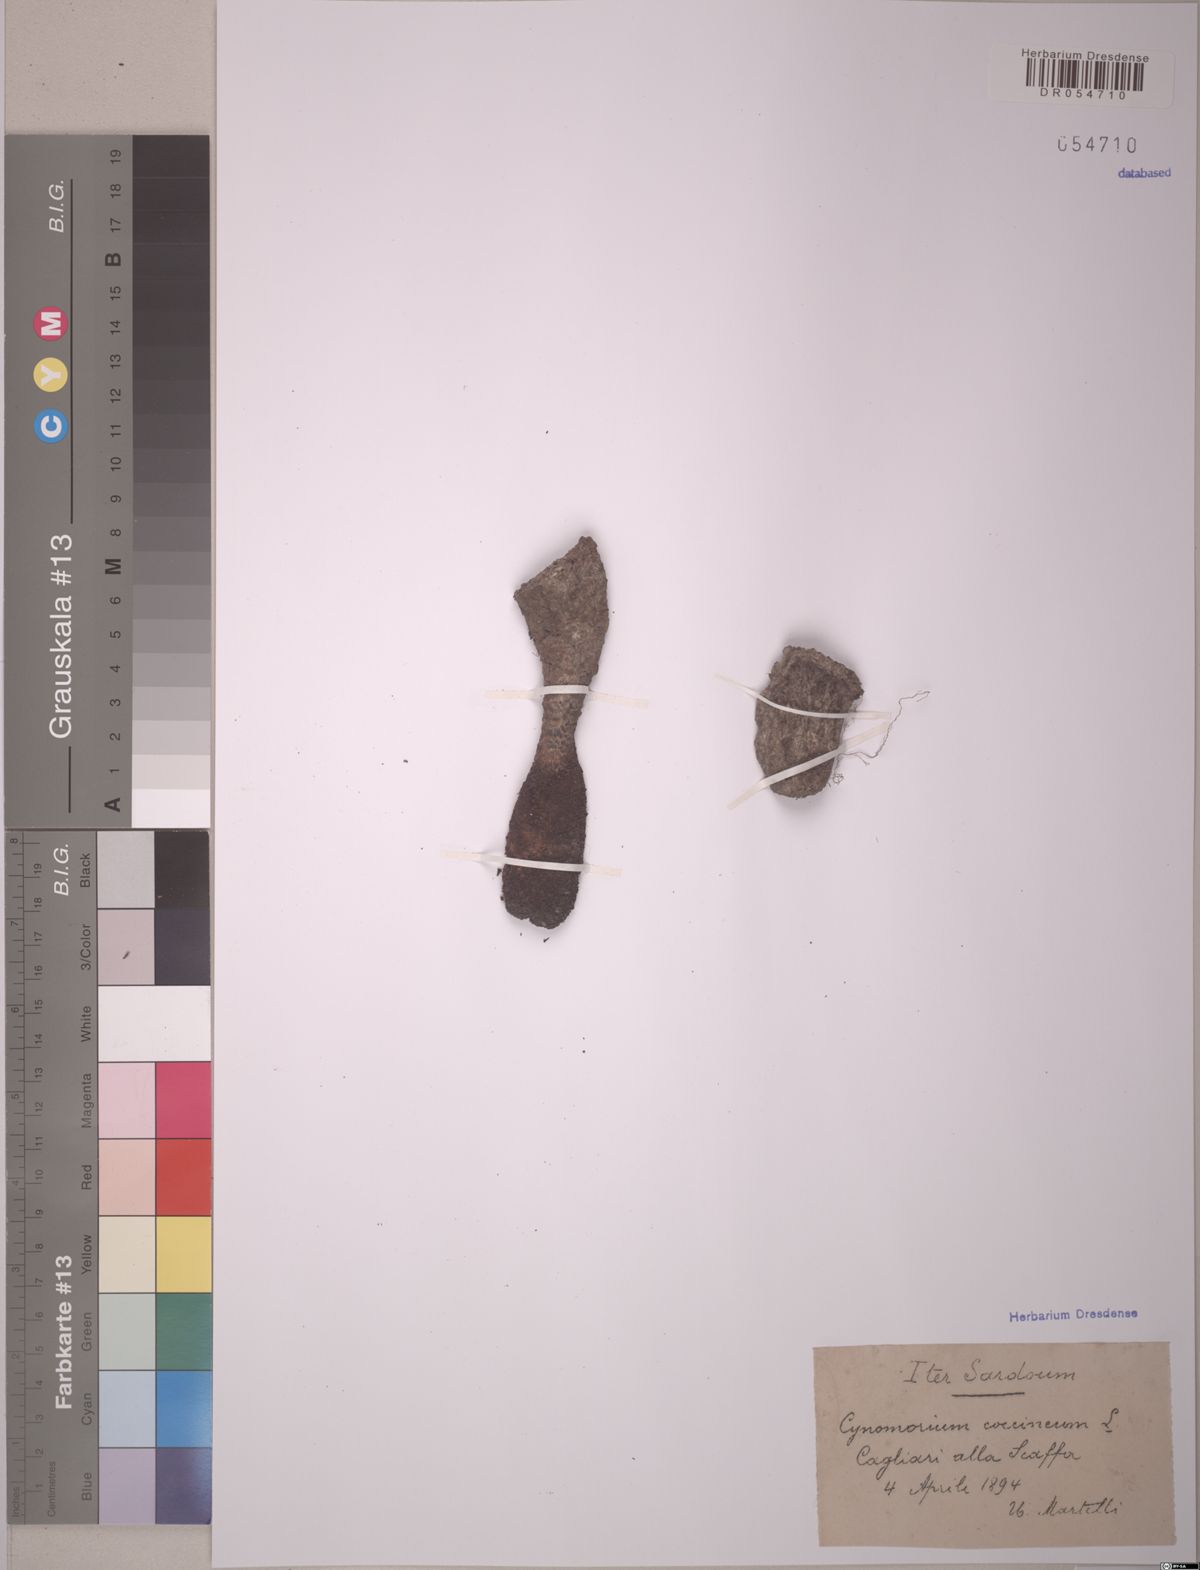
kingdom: Plantae
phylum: Tracheophyta
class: Magnoliopsida
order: Saxifragales
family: Cynomoriaceae
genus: Cynomorium
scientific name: Cynomorium coccineum
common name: Maltese-mushroom
